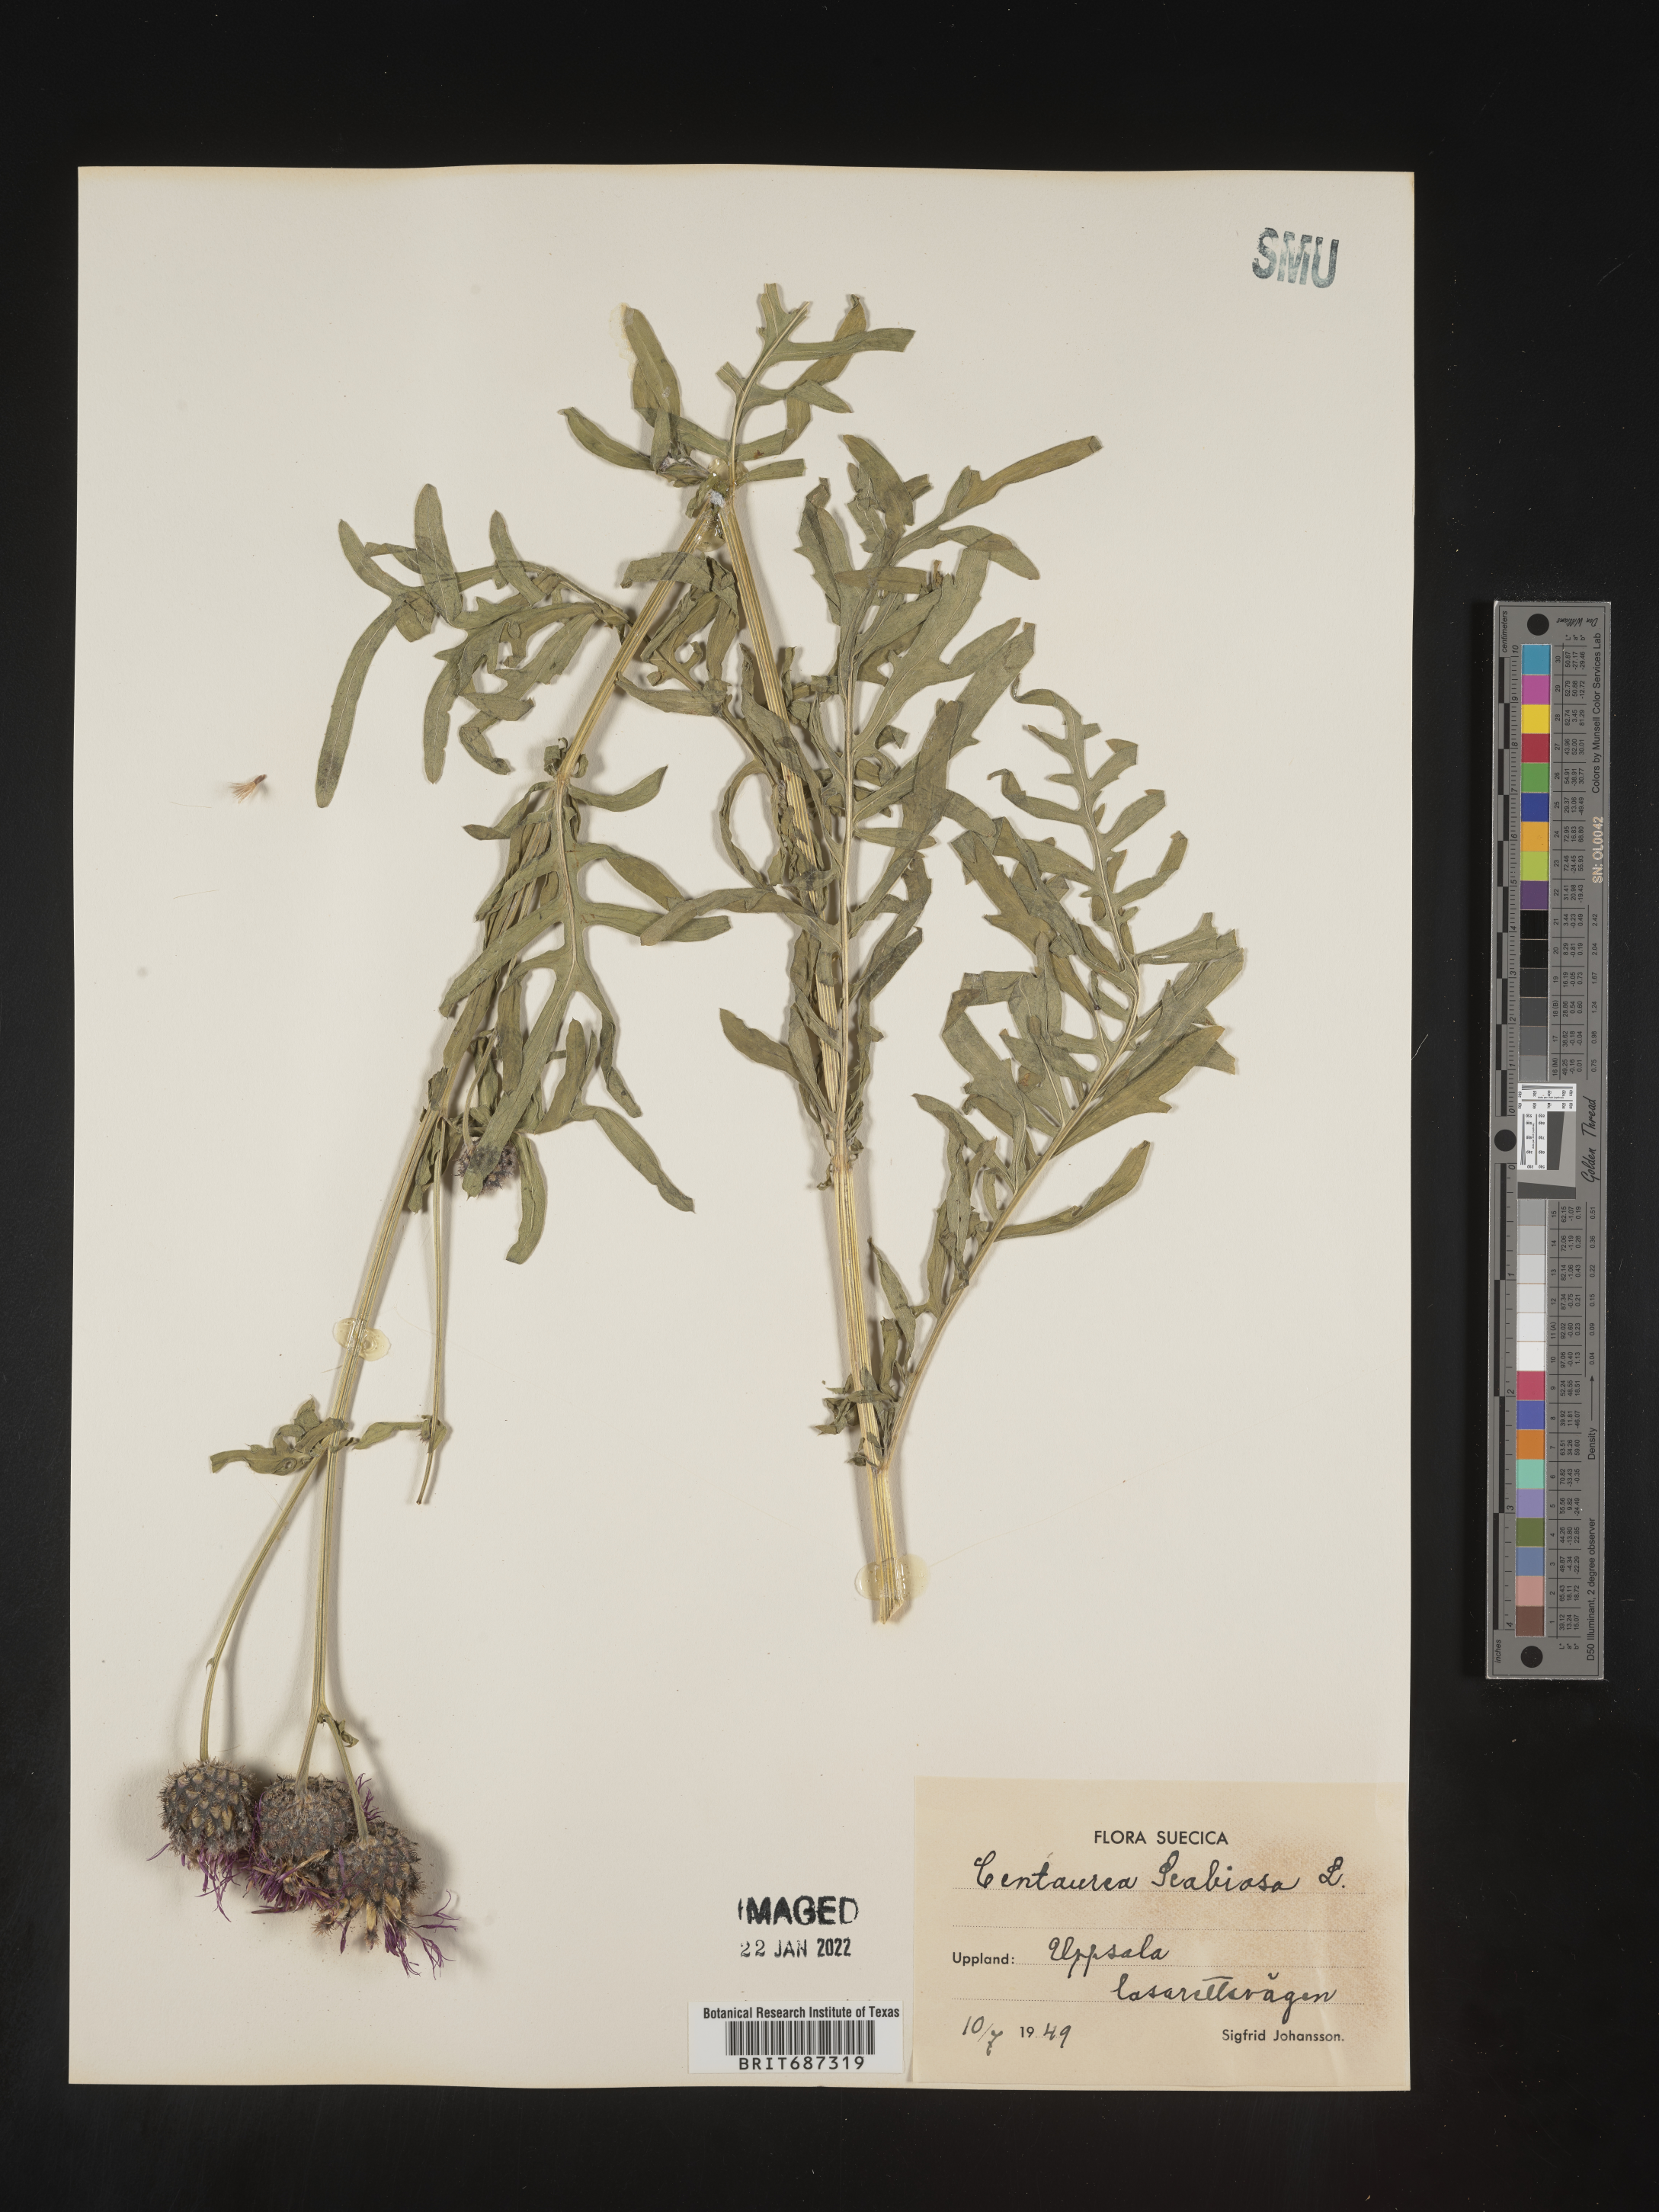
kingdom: Plantae
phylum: Tracheophyta
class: Magnoliopsida
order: Asterales
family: Asteraceae
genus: Centaurea
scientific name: Centaurea
